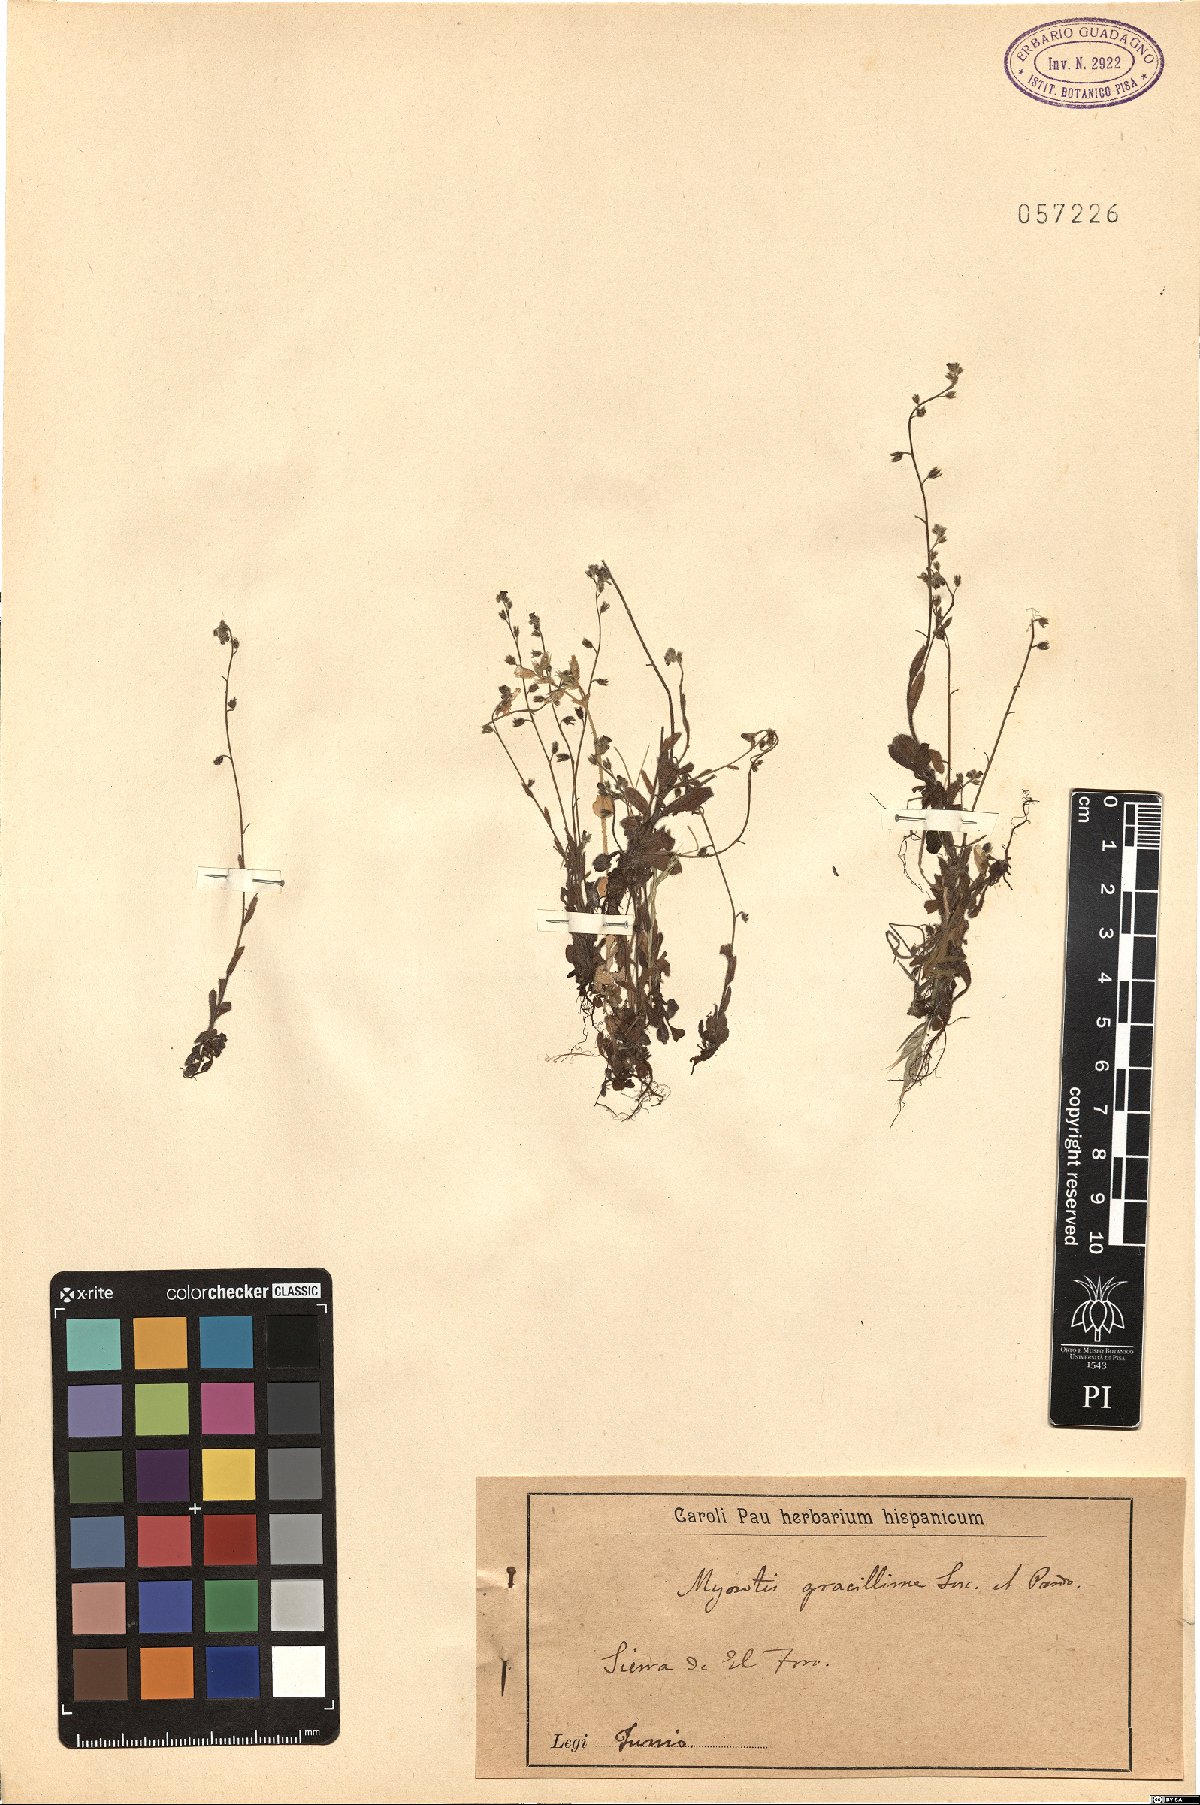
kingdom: Plantae
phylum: Tracheophyta
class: Magnoliopsida
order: Boraginales
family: Boraginaceae
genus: Myosotis
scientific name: Myosotis ramosissima
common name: Early forget-me-not
